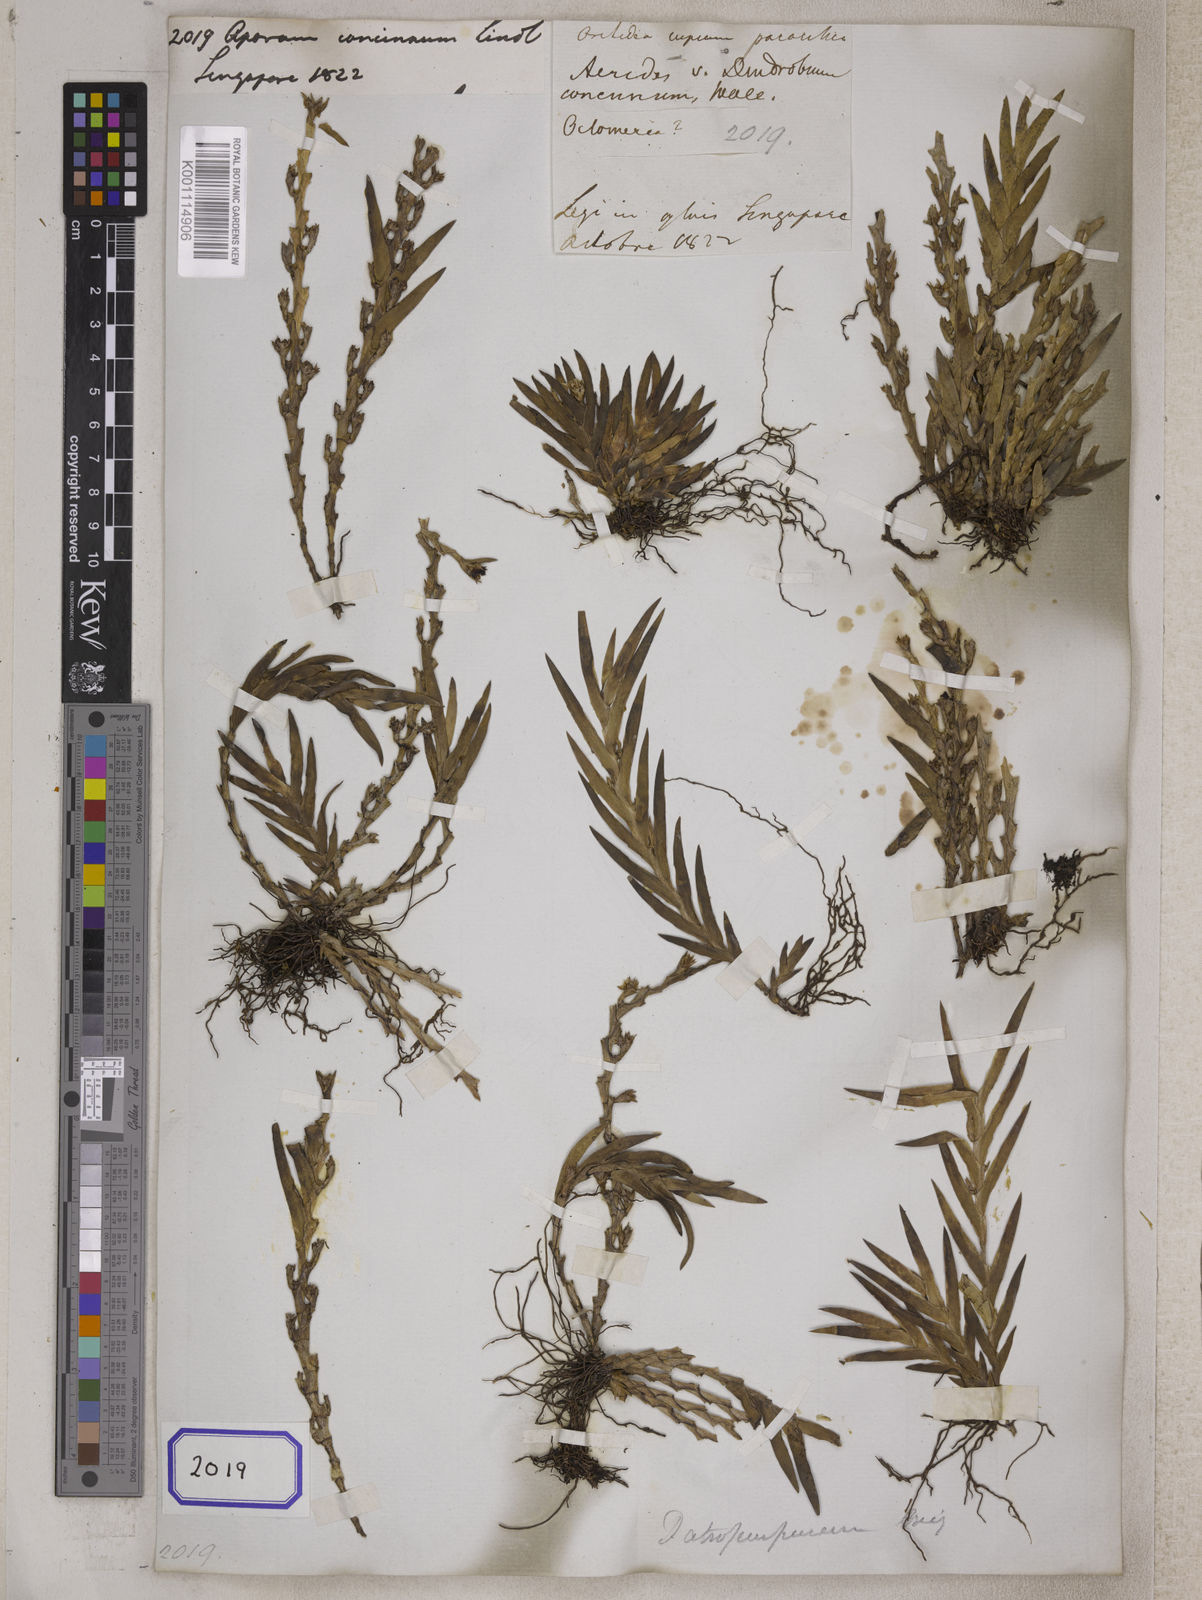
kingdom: Plantae
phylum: Tracheophyta
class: Liliopsida
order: Asparagales
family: Orchidaceae
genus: Dendrobium
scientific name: Dendrobium
